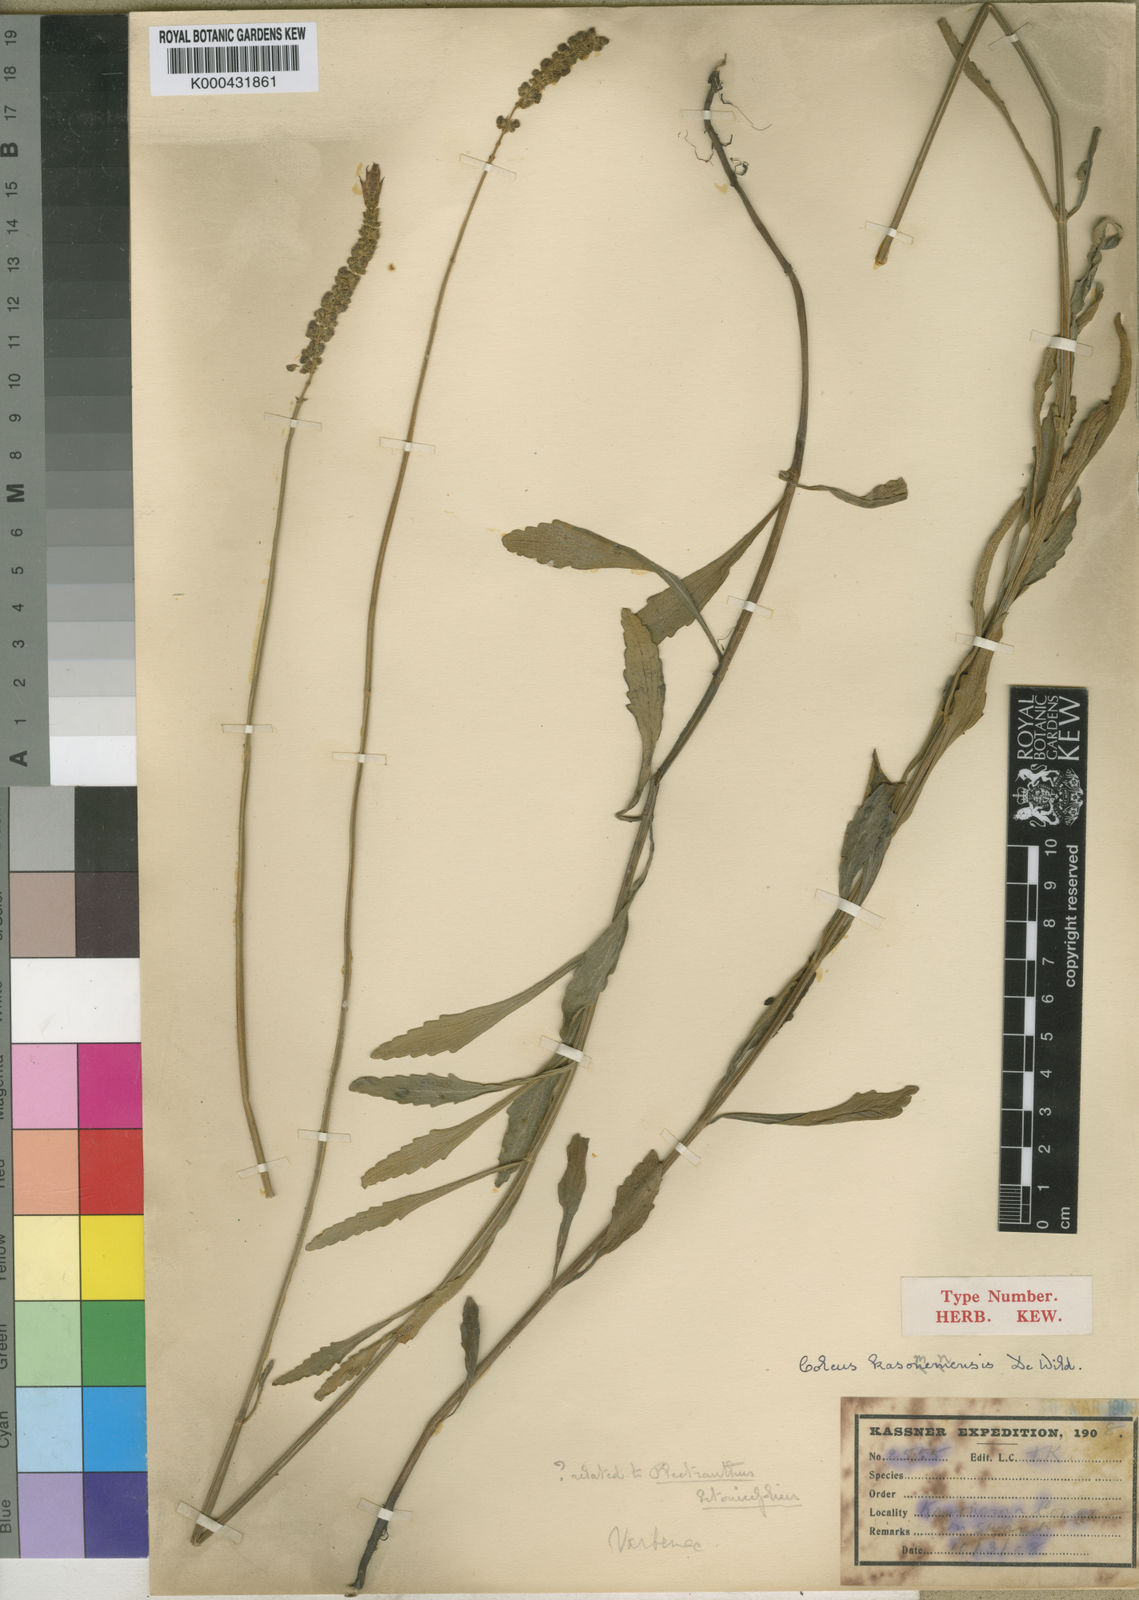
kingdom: Plantae
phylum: Tracheophyta
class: Magnoliopsida
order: Lamiales
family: Lamiaceae
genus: Coleus
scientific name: Coleus betonicifolius
